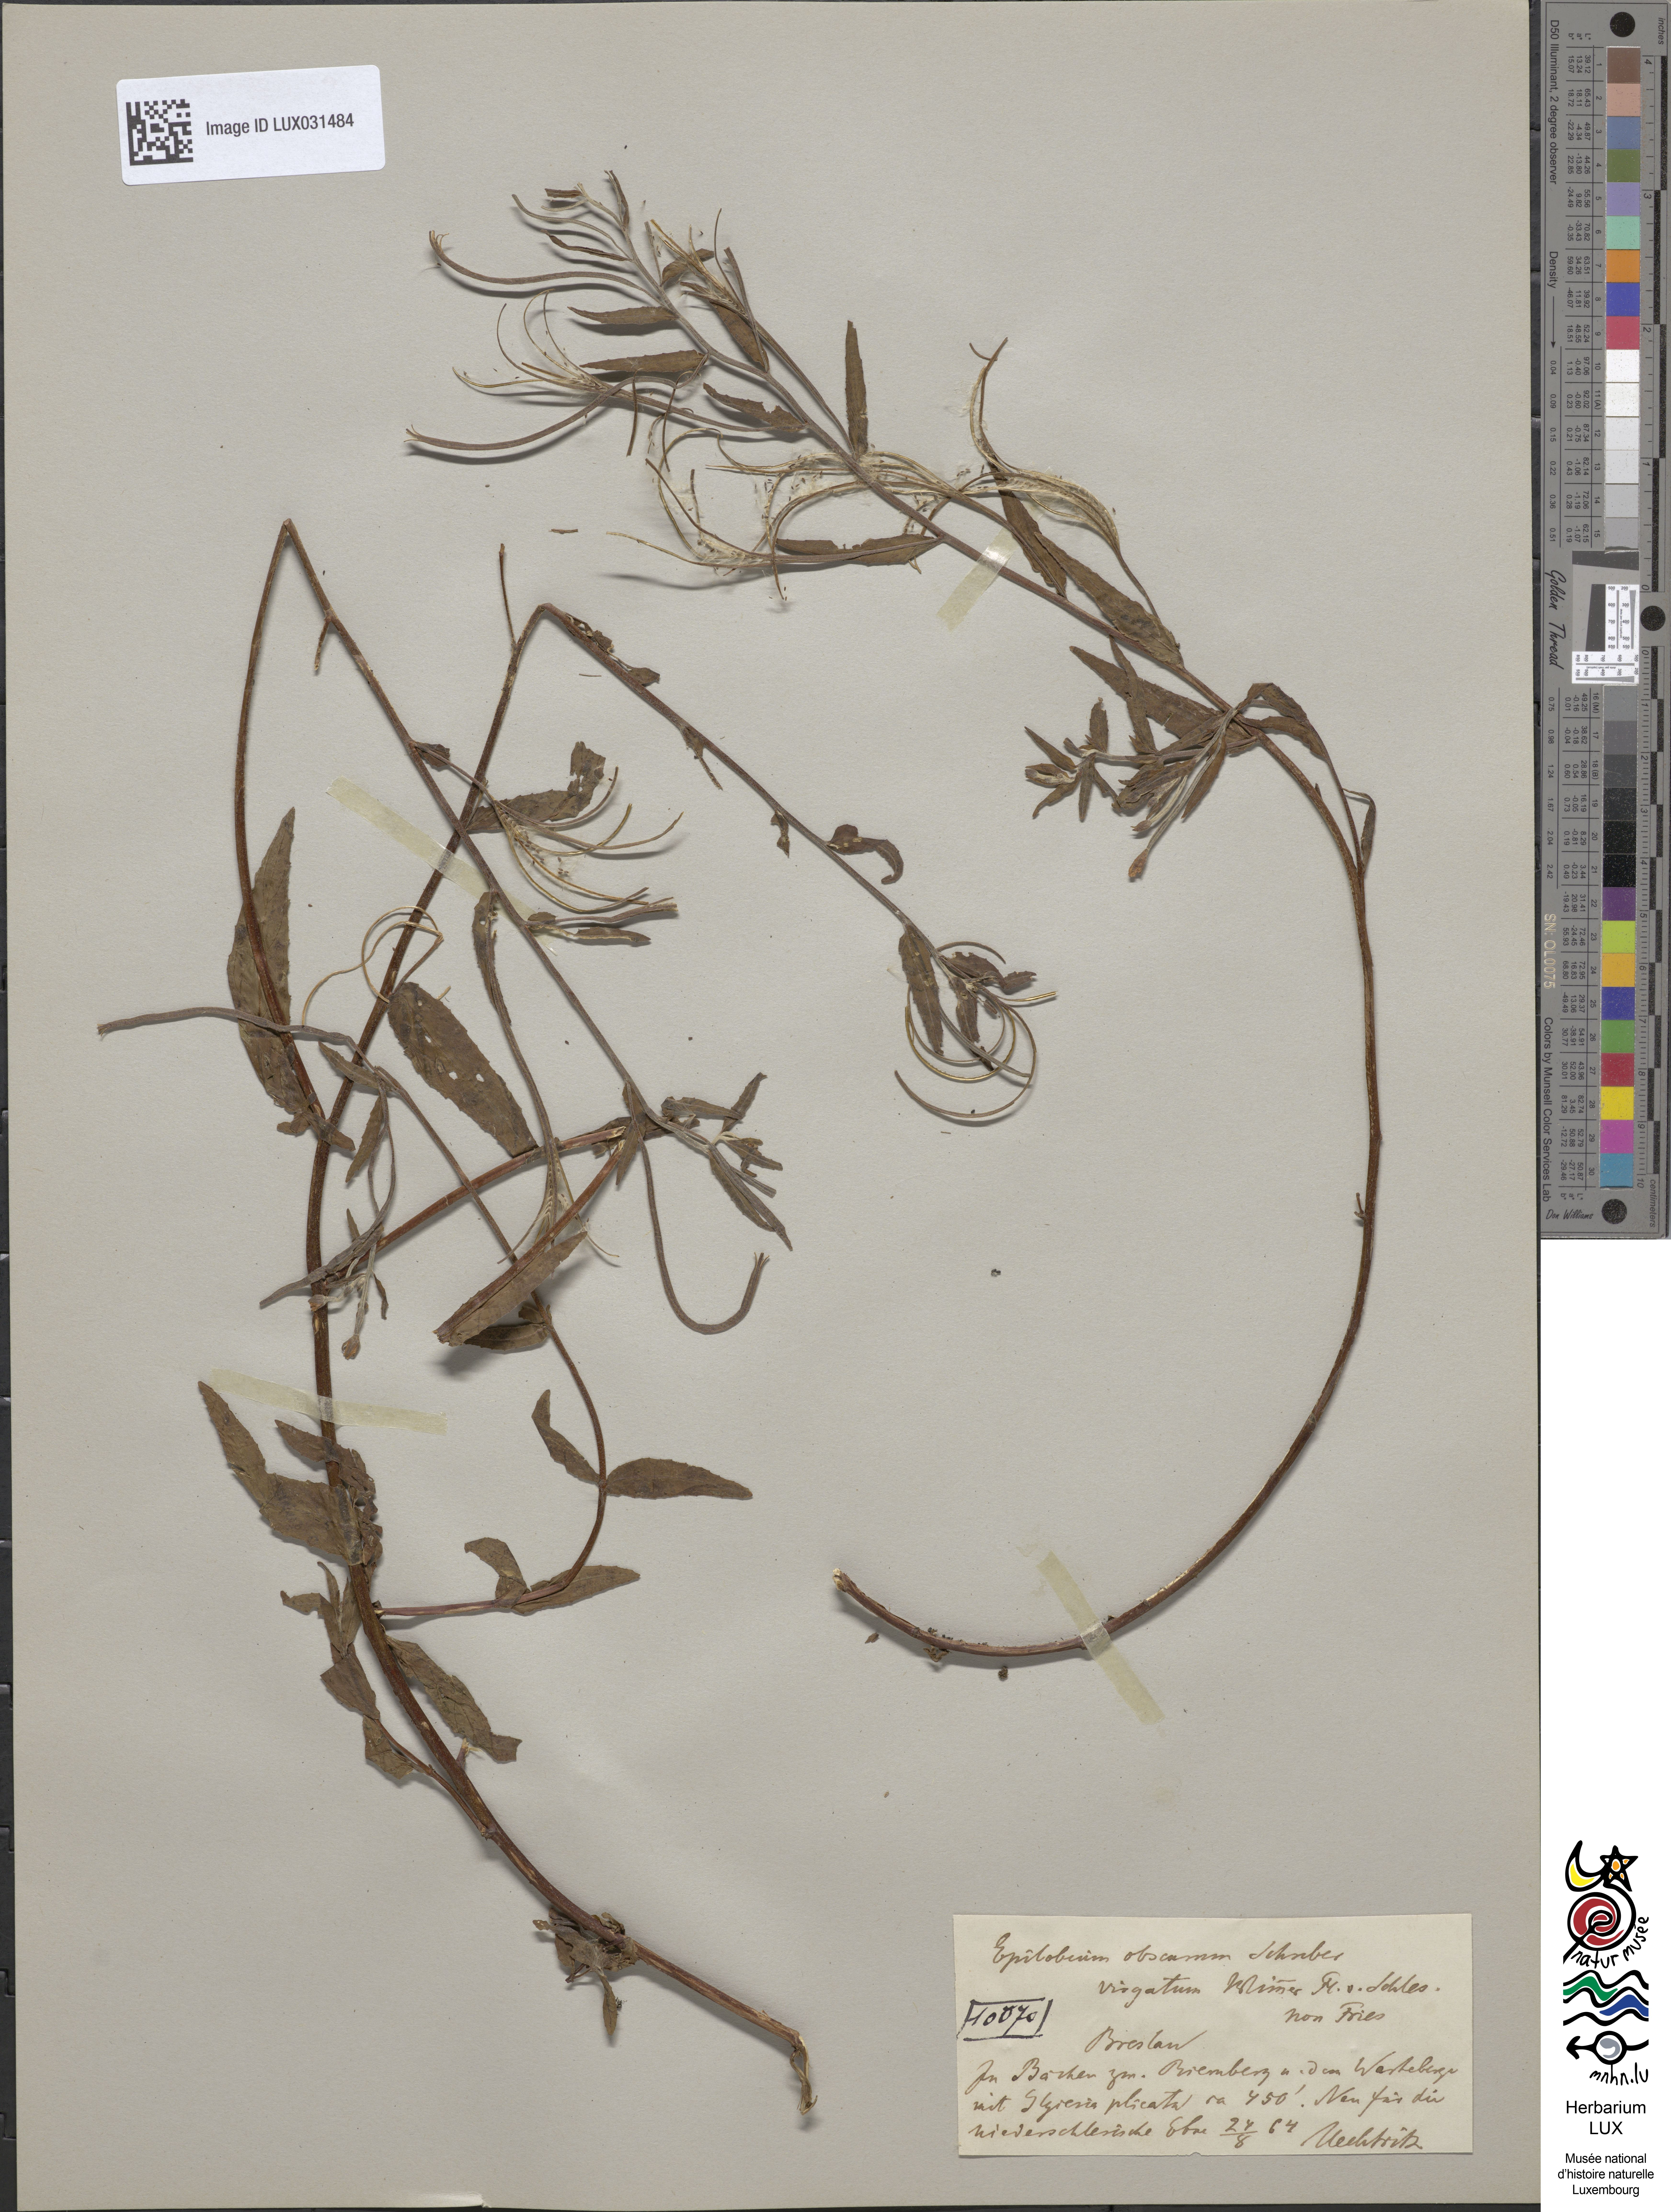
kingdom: Plantae
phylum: Tracheophyta
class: Magnoliopsida
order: Myrtales
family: Onagraceae
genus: Epilobium
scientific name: Epilobium obscurum
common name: Short-fruited willowherb
